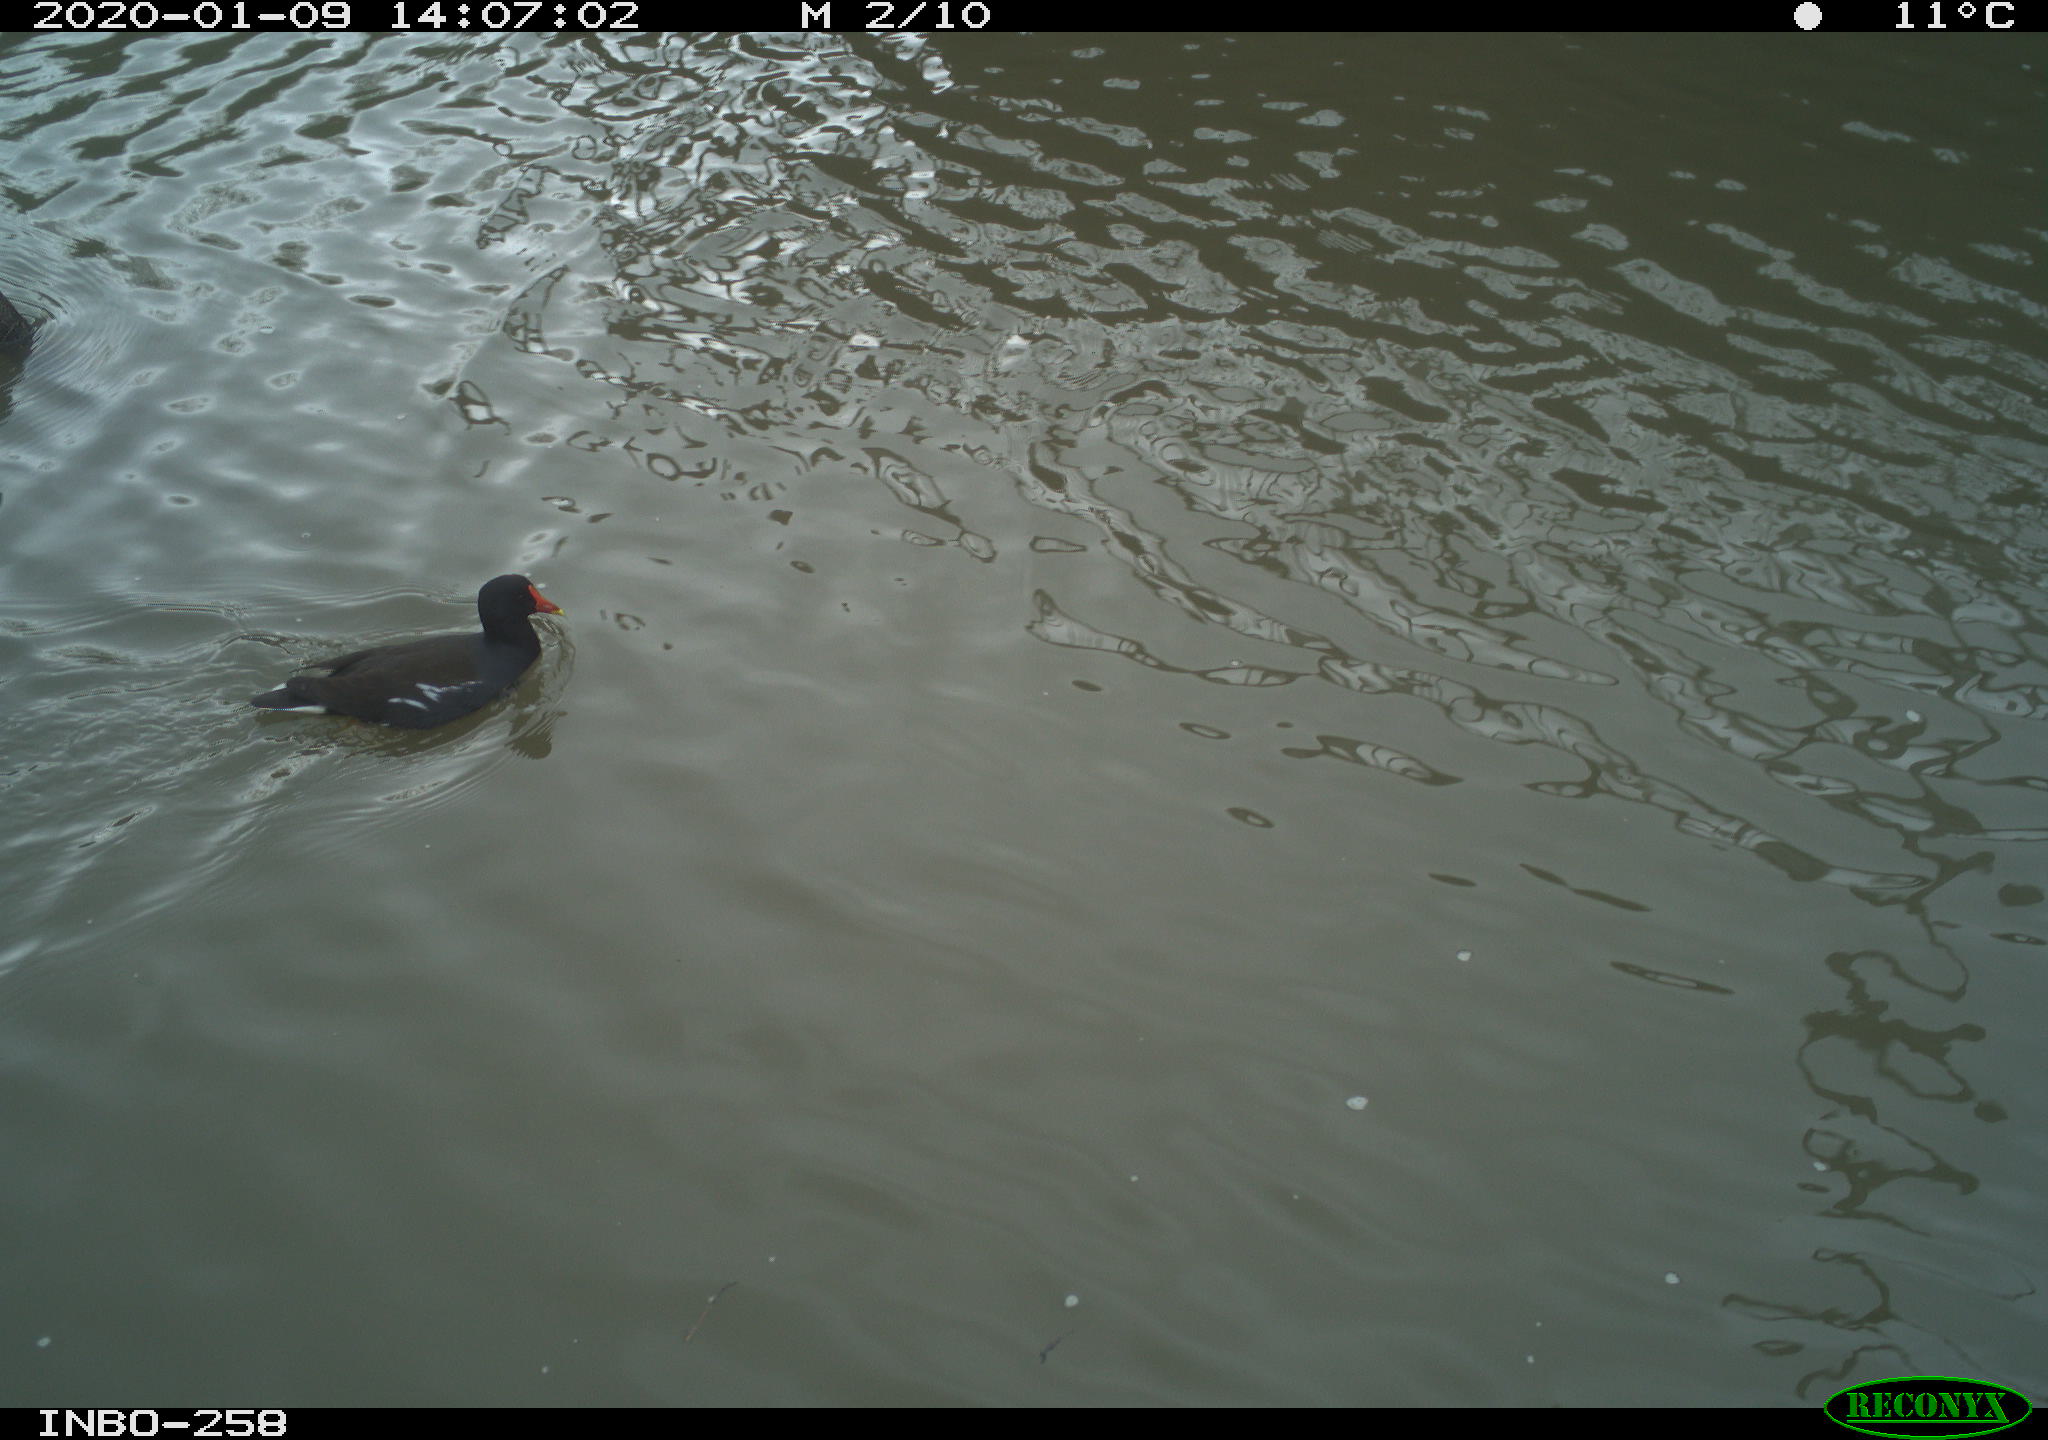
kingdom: Animalia
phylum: Chordata
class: Aves
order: Gruiformes
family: Rallidae
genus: Gallinula
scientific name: Gallinula chloropus
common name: Common moorhen
